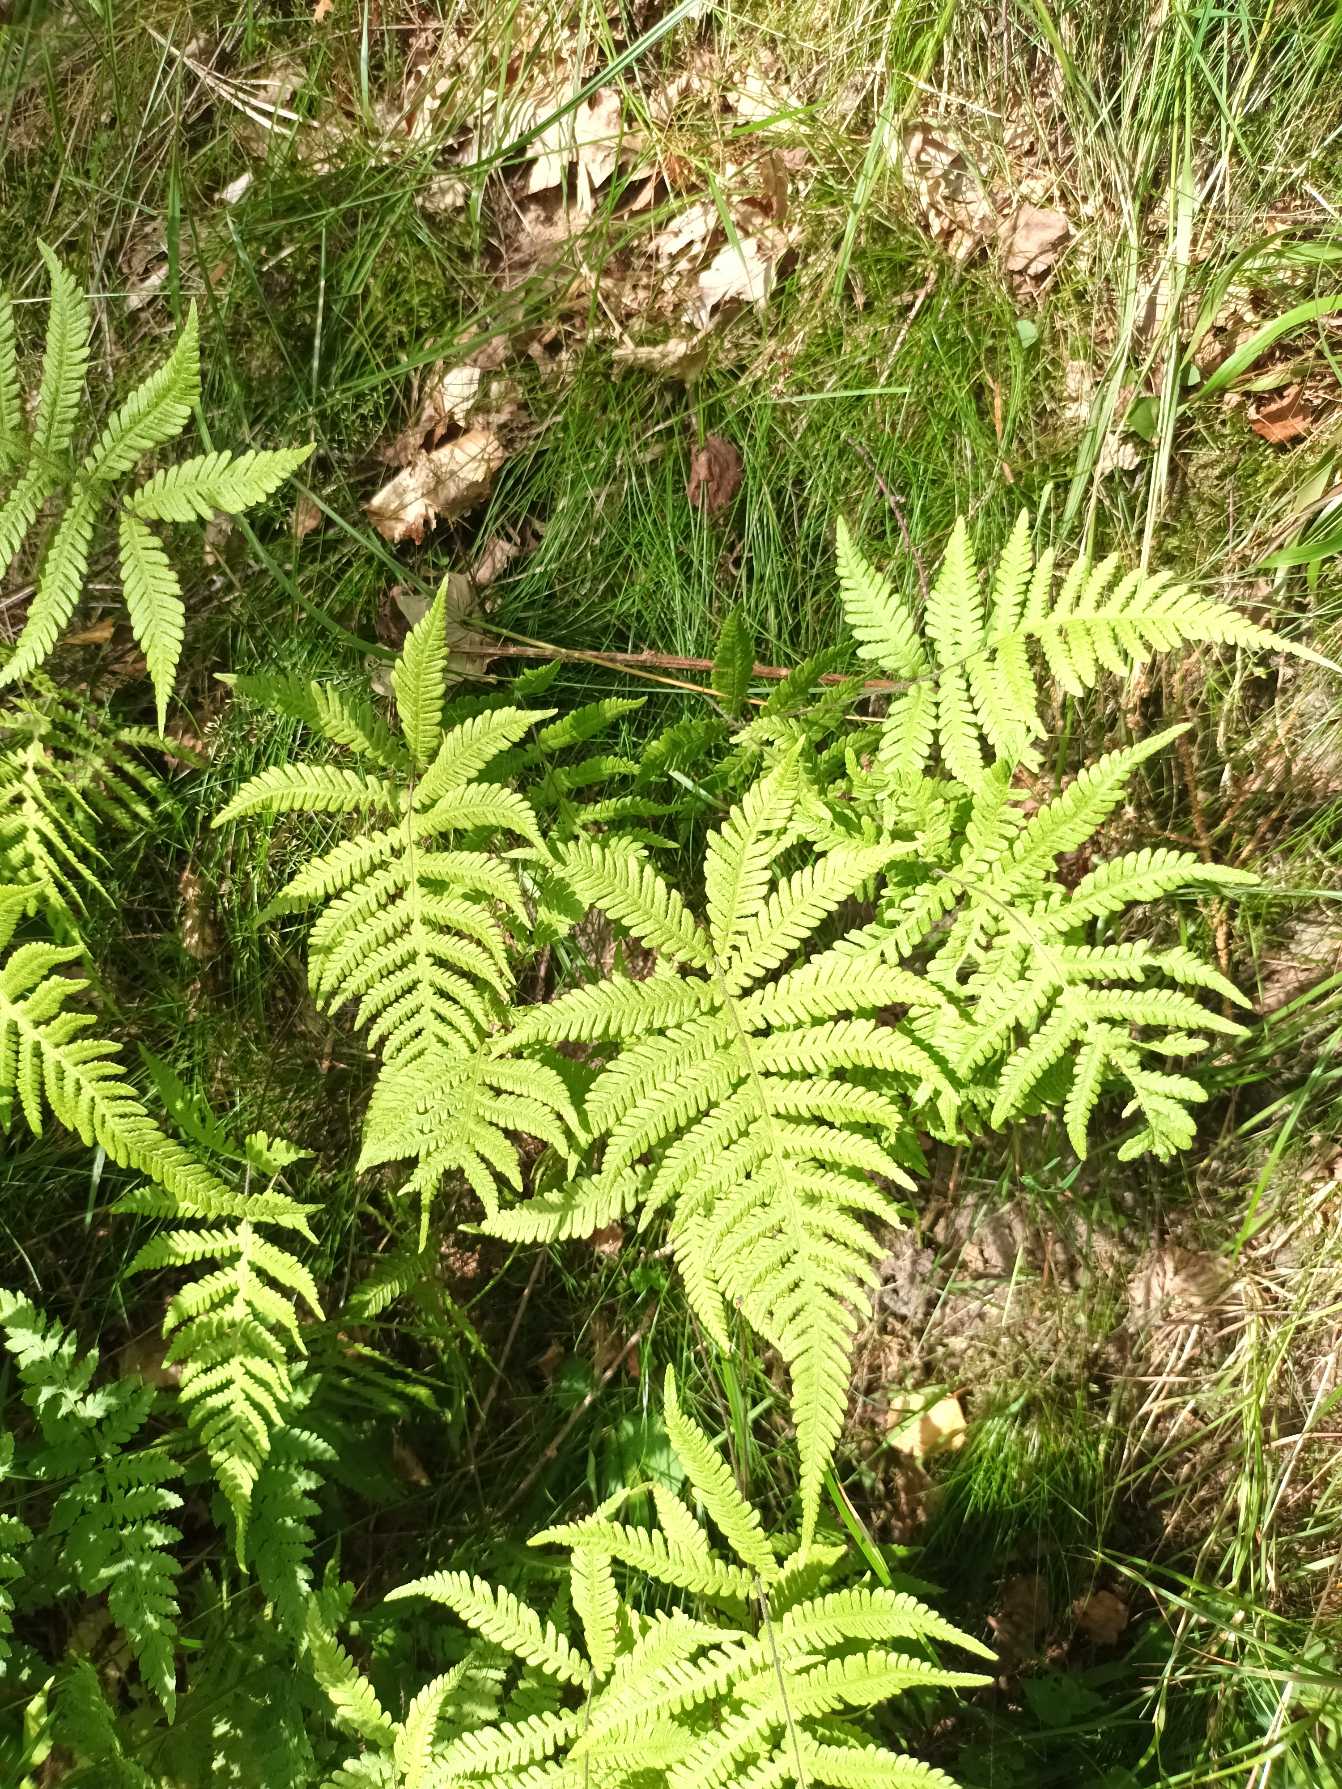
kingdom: Plantae
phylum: Tracheophyta
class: Polypodiopsida
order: Polypodiales
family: Thelypteridaceae
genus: Phegopteris
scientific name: Phegopteris connectilis
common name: Dunet egebregne
